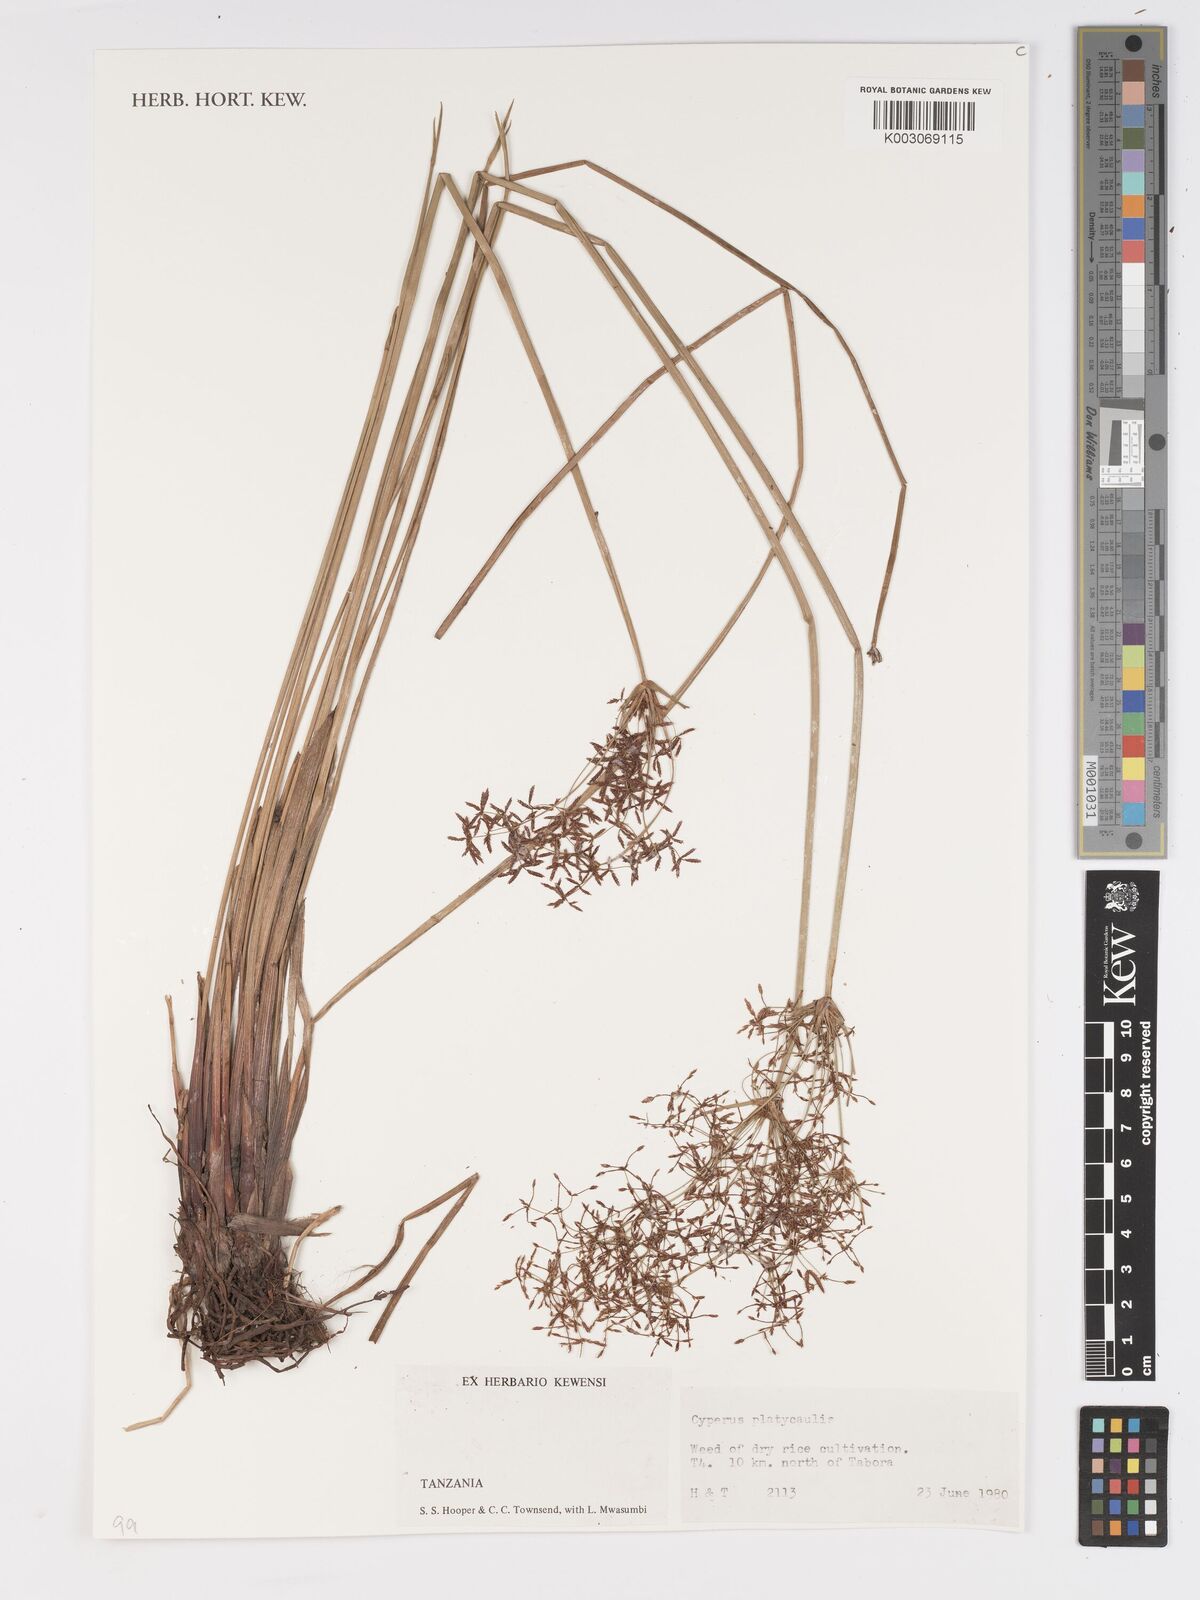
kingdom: Plantae
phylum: Tracheophyta
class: Liliopsida
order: Poales
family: Cyperaceae
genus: Cyperus
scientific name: Cyperus platycaulis
